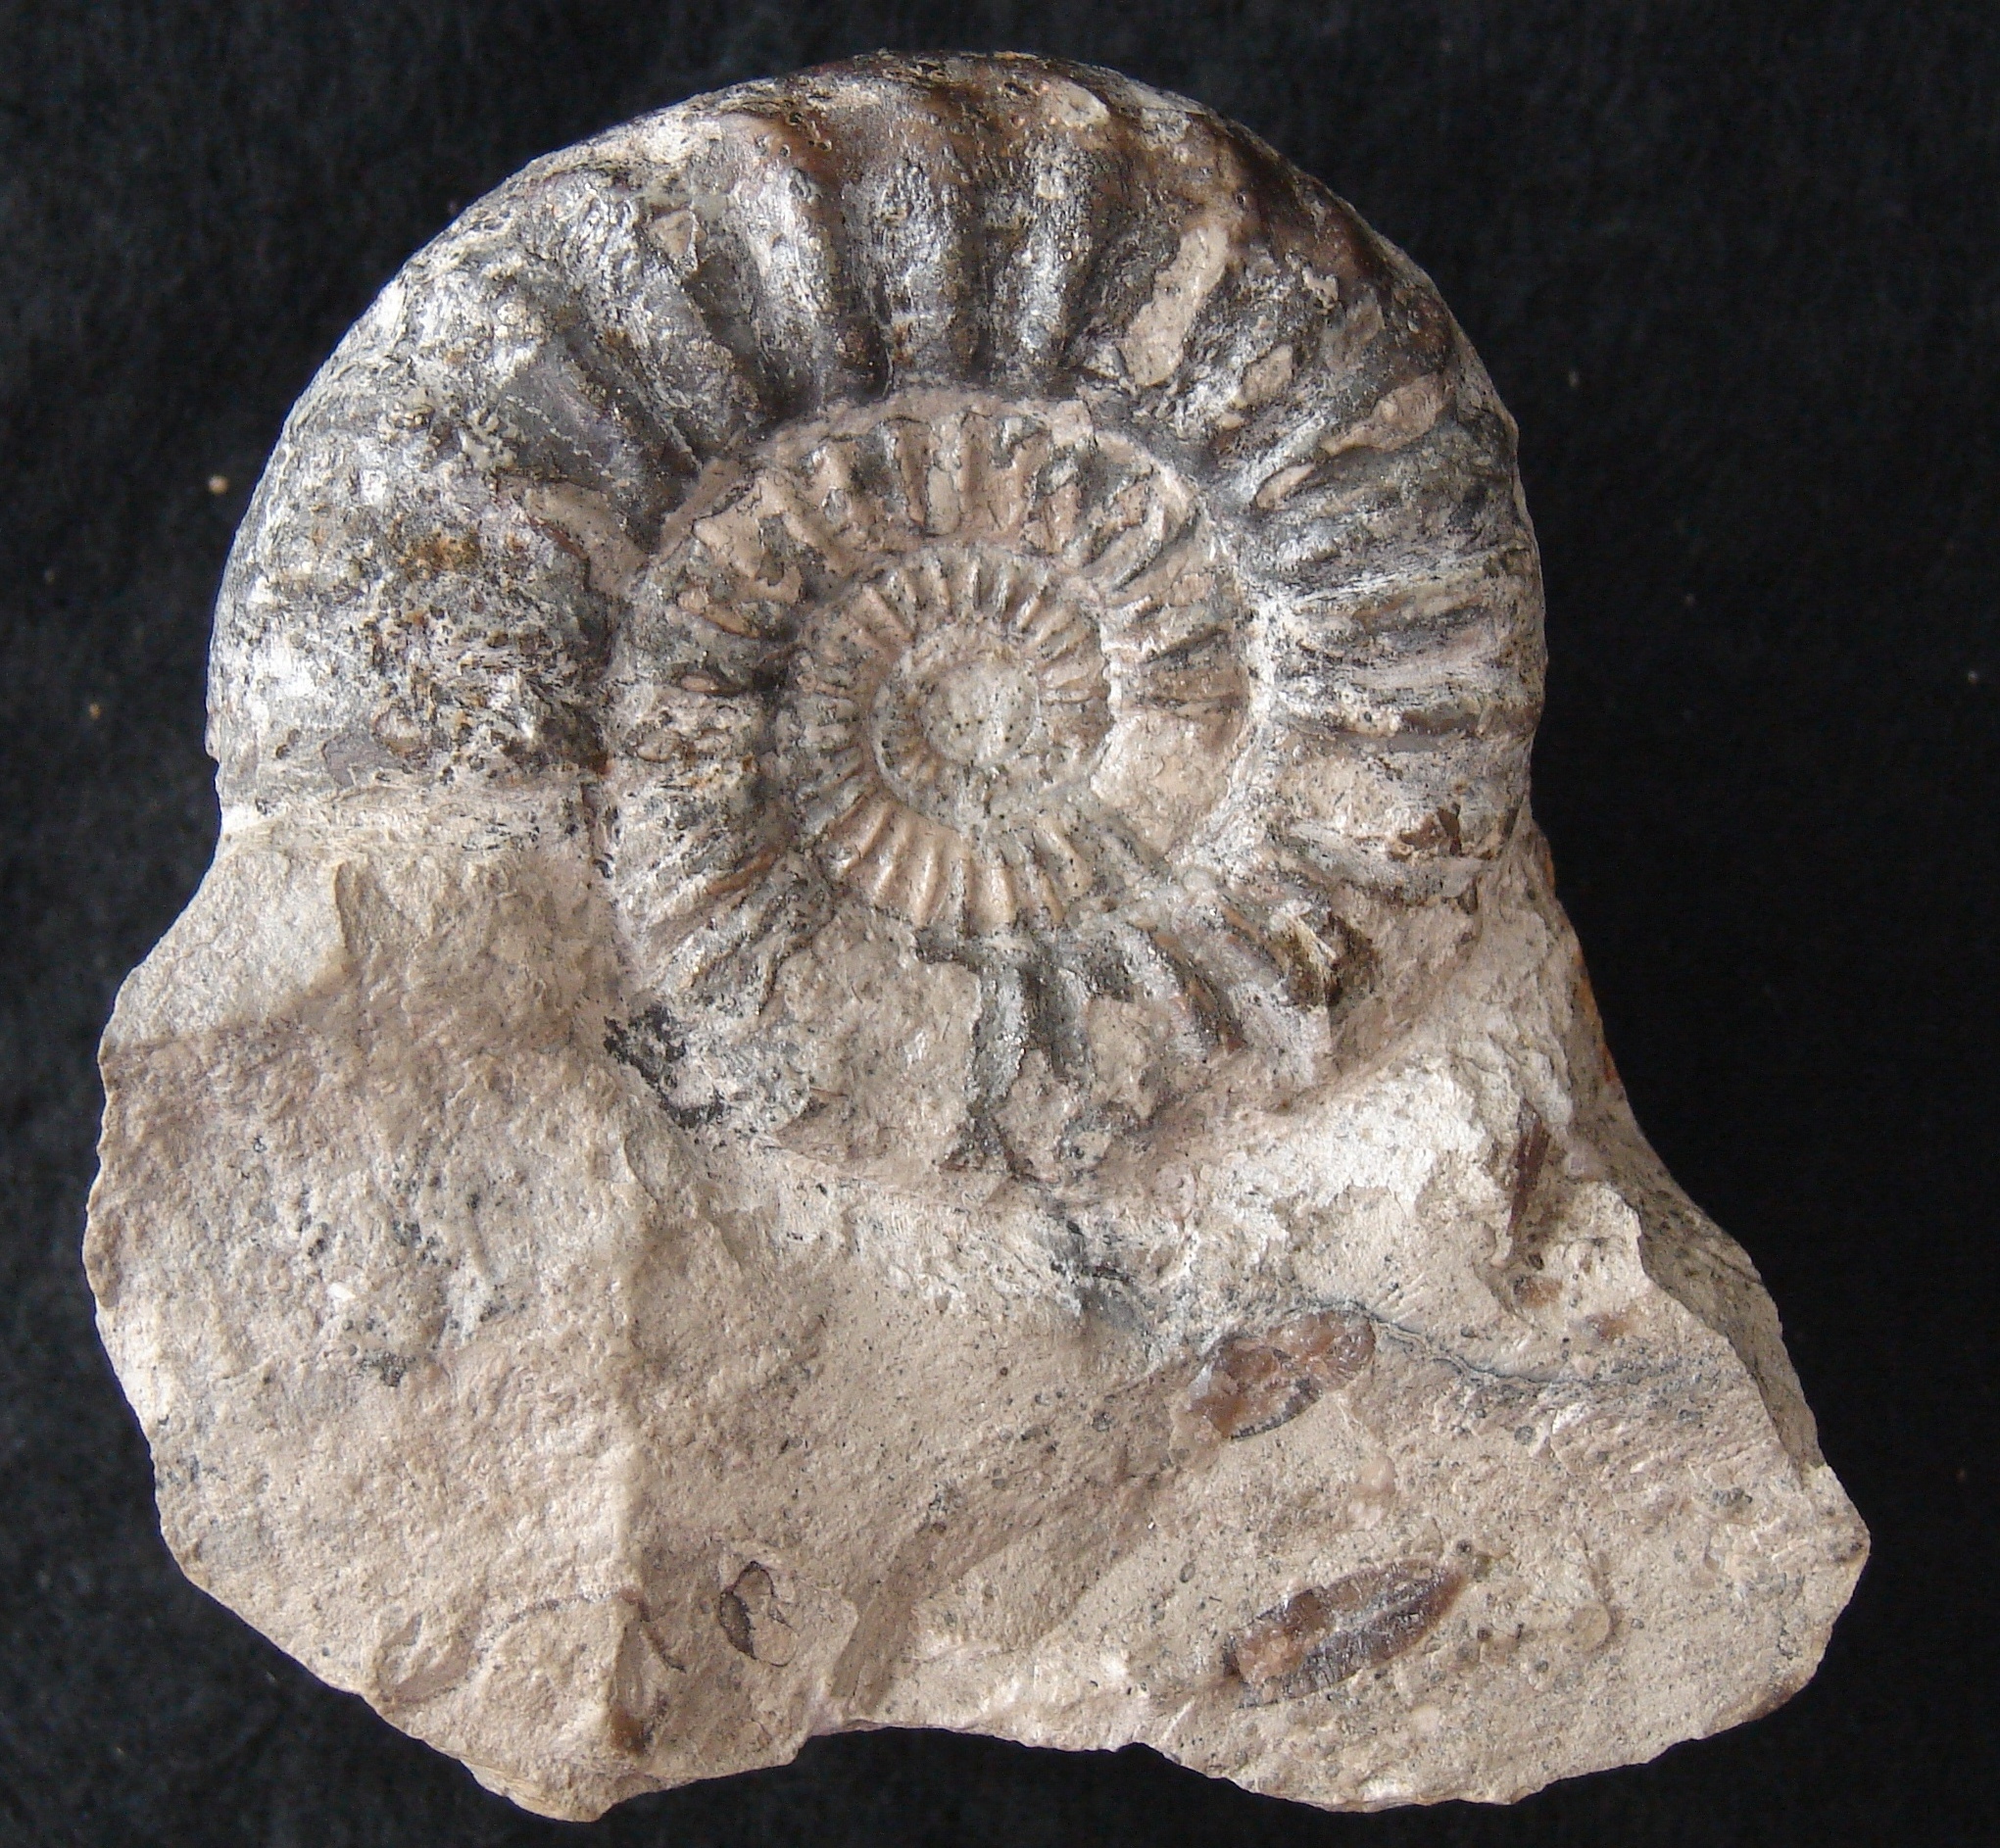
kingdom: Animalia
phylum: Mollusca
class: Cephalopoda
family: Arietitidae
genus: Arietites
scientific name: Arietites
